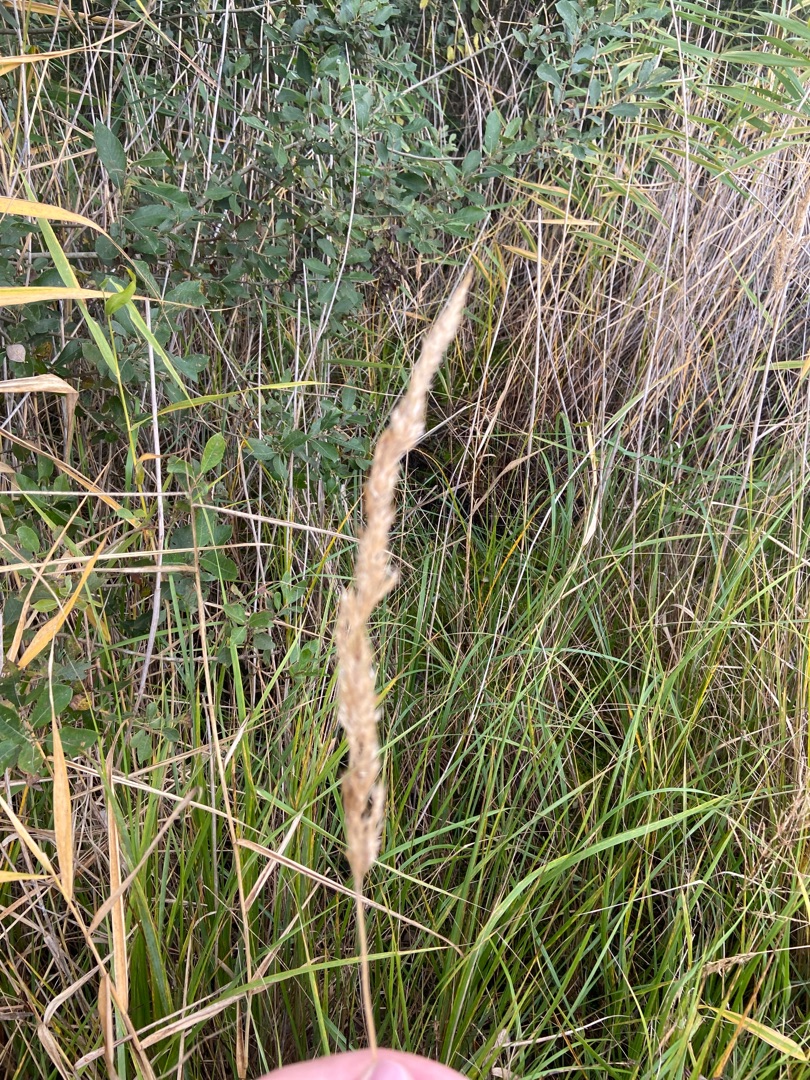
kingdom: Plantae
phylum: Tracheophyta
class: Liliopsida
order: Poales
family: Poaceae
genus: Calamagrostis
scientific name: Calamagrostis epigejos
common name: Bjerg-rørhvene
